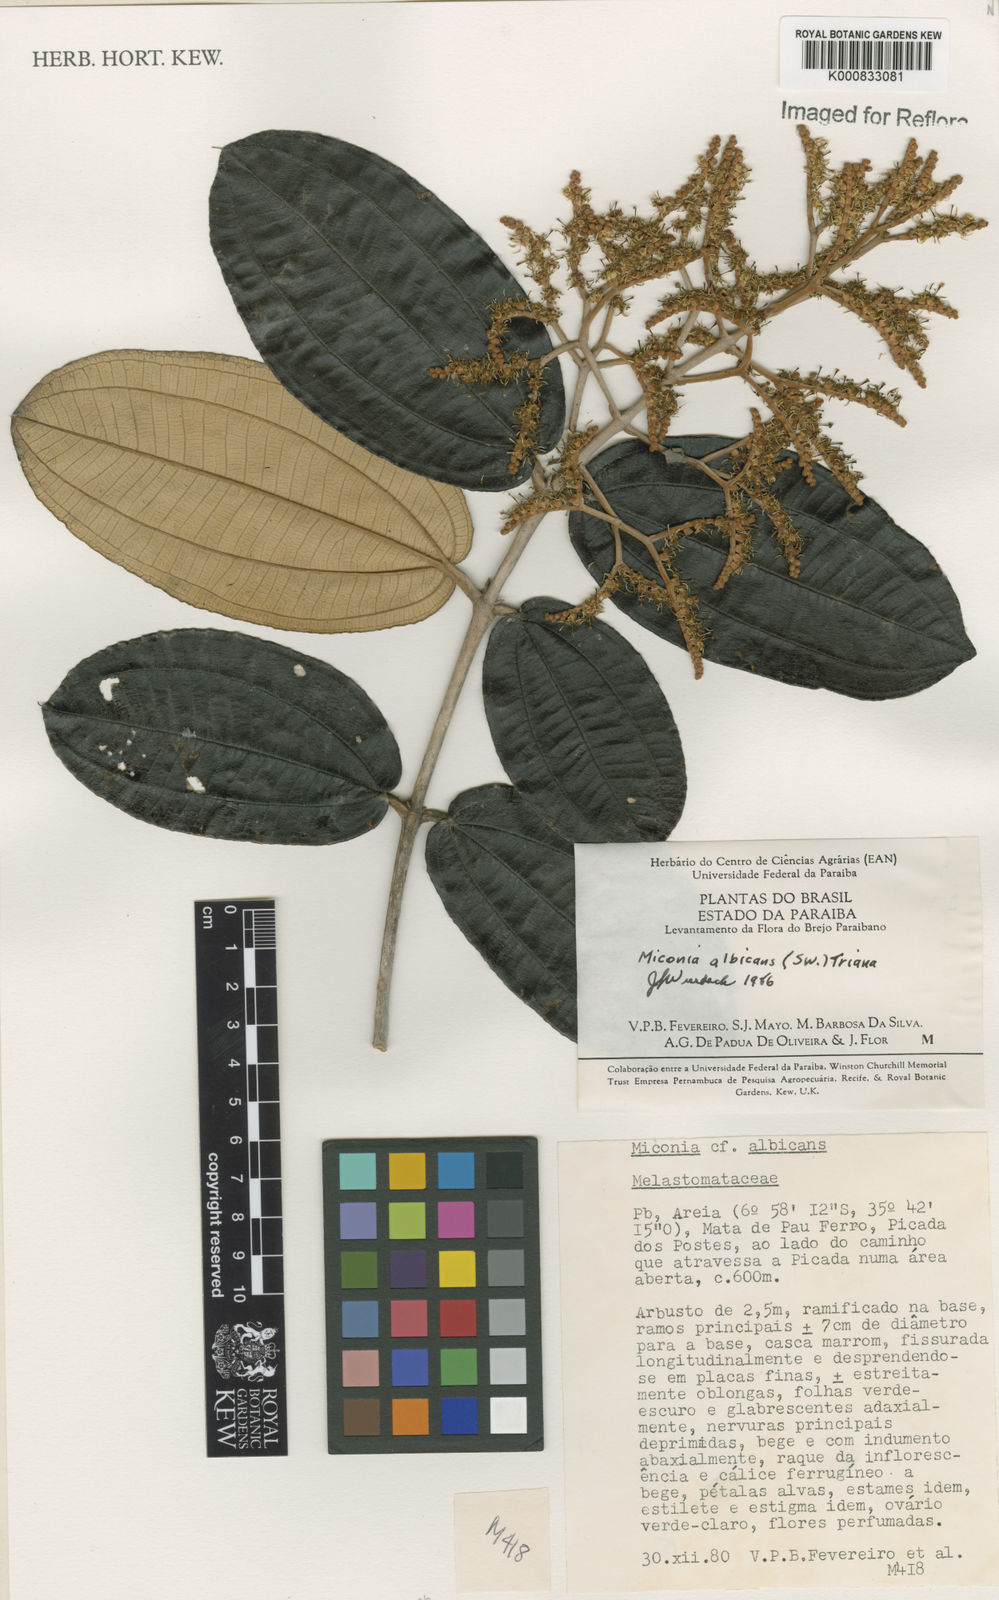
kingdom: Plantae
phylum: Tracheophyta
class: Magnoliopsida
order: Myrtales
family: Melastomataceae
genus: Miconia
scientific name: Miconia albicans
